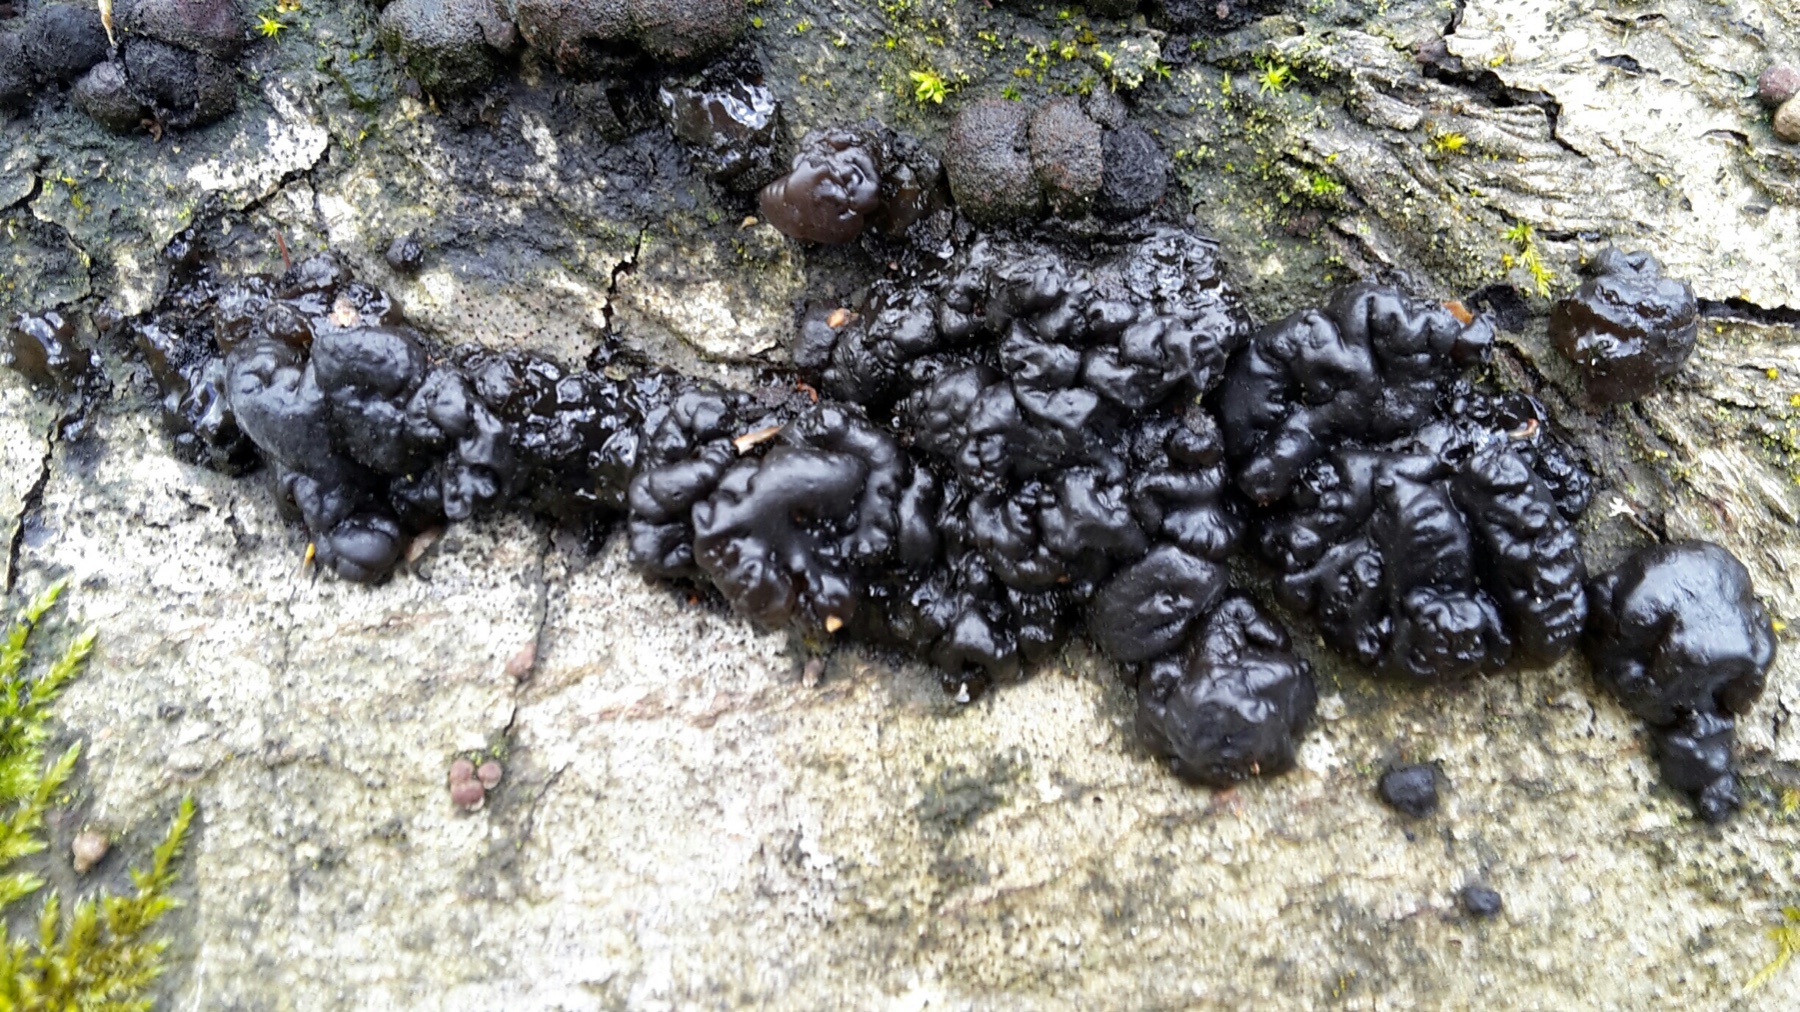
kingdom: Fungi
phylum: Basidiomycota
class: Agaricomycetes
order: Auriculariales
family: Auriculariaceae
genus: Exidia
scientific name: Exidia nigricans
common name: almindelig bævretop
